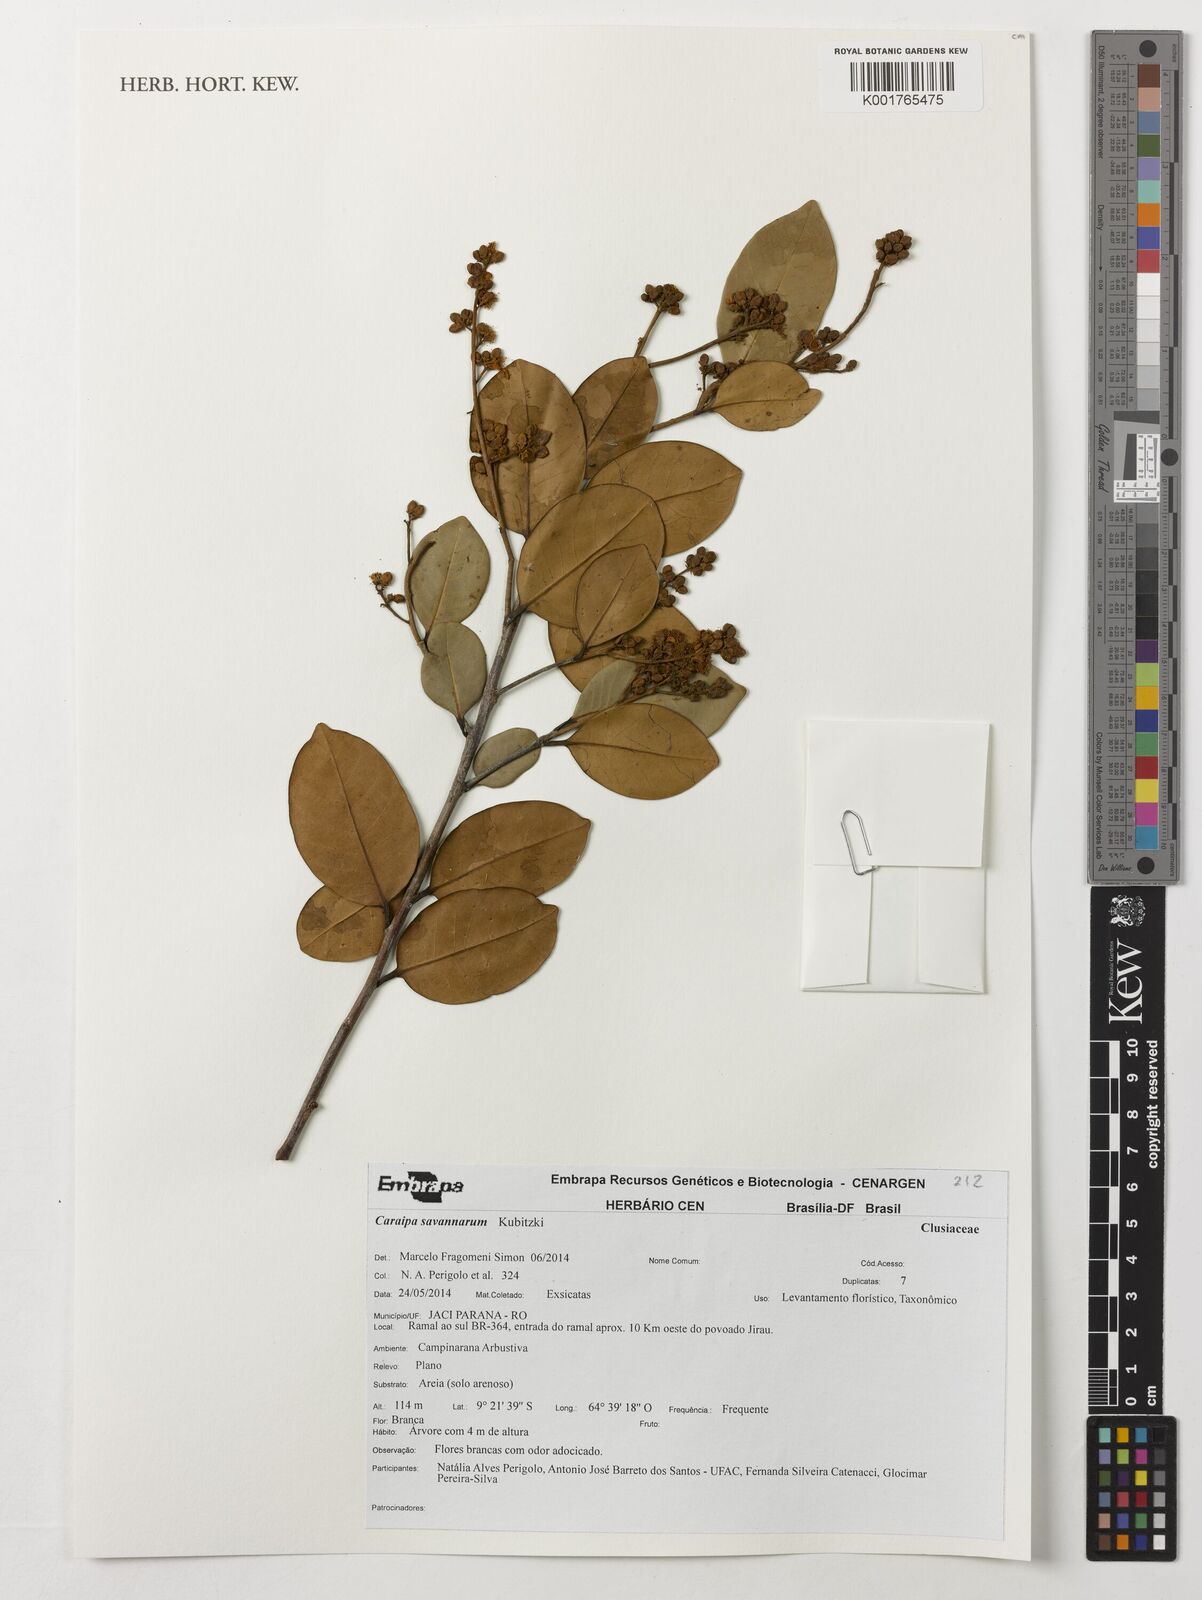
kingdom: Plantae
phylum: Tracheophyta
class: Magnoliopsida
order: Malpighiales
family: Calophyllaceae
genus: Caraipa
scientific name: Caraipa savannarum
